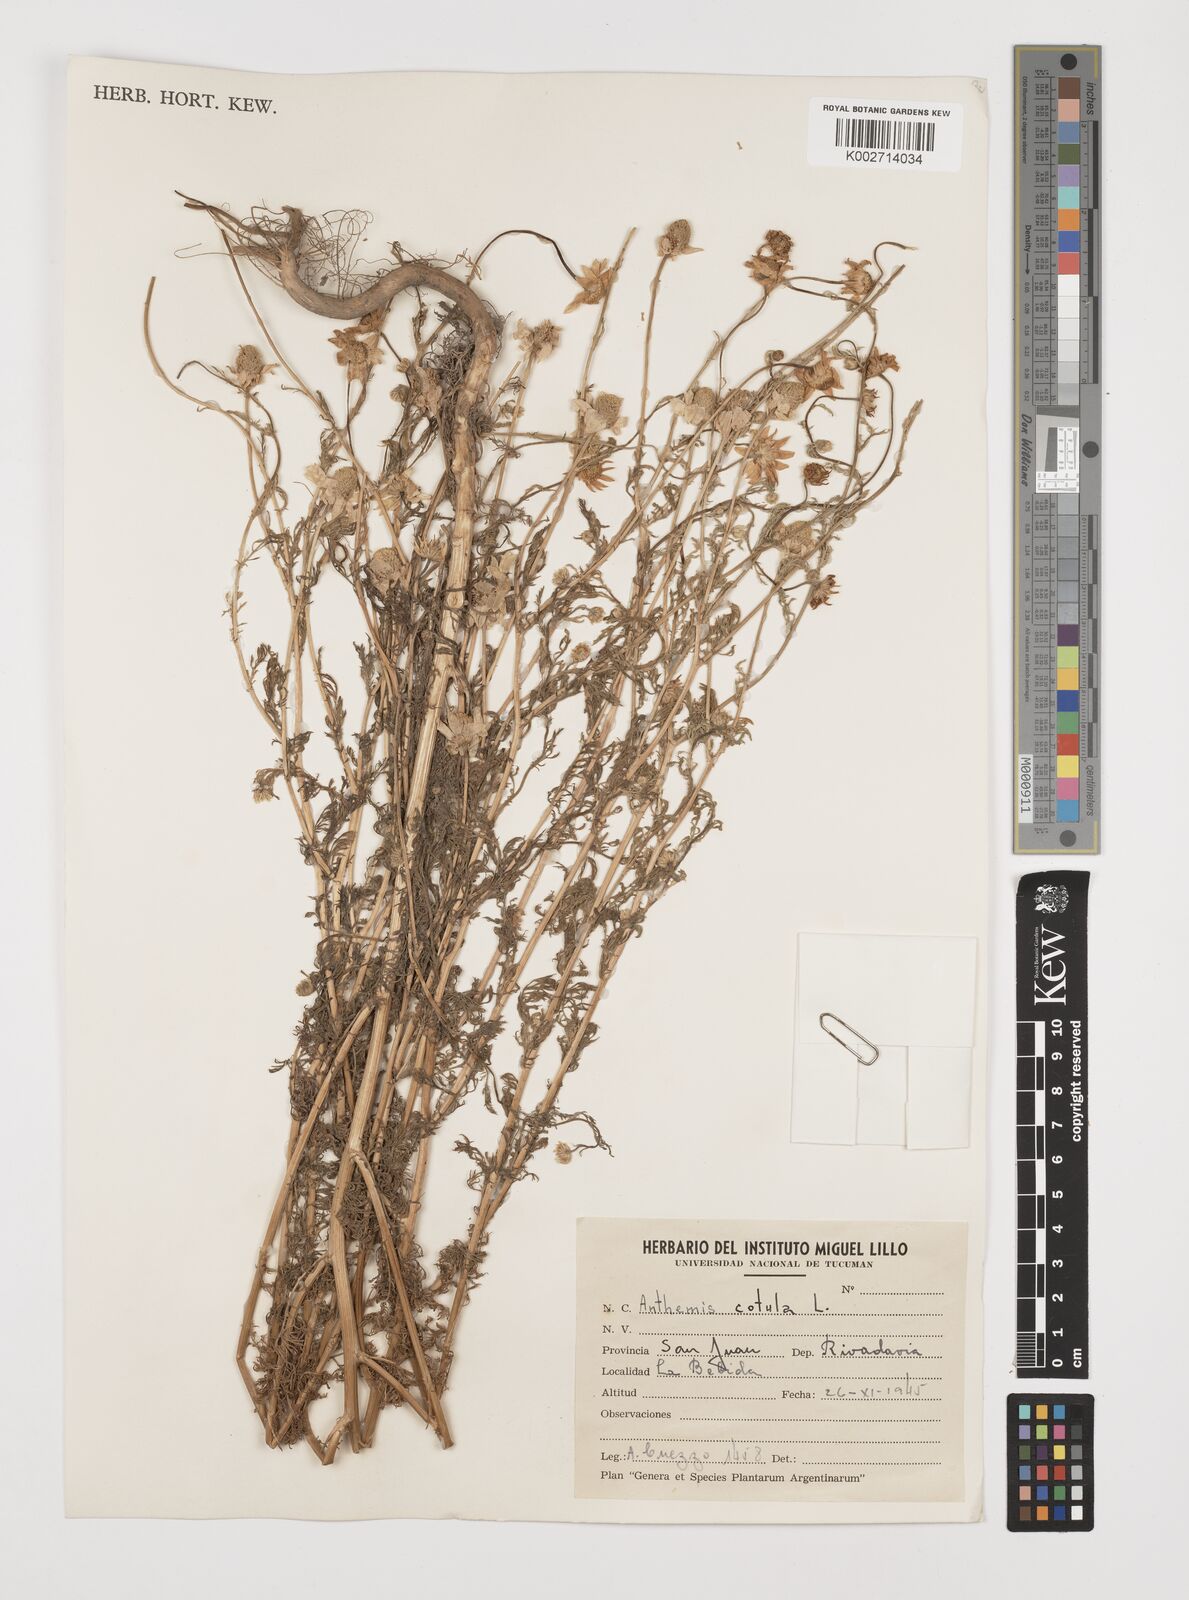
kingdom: Plantae
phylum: Tracheophyta
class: Magnoliopsida
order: Asterales
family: Asteraceae
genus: Anthemis
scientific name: Anthemis cotula
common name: Stinking chamomile
